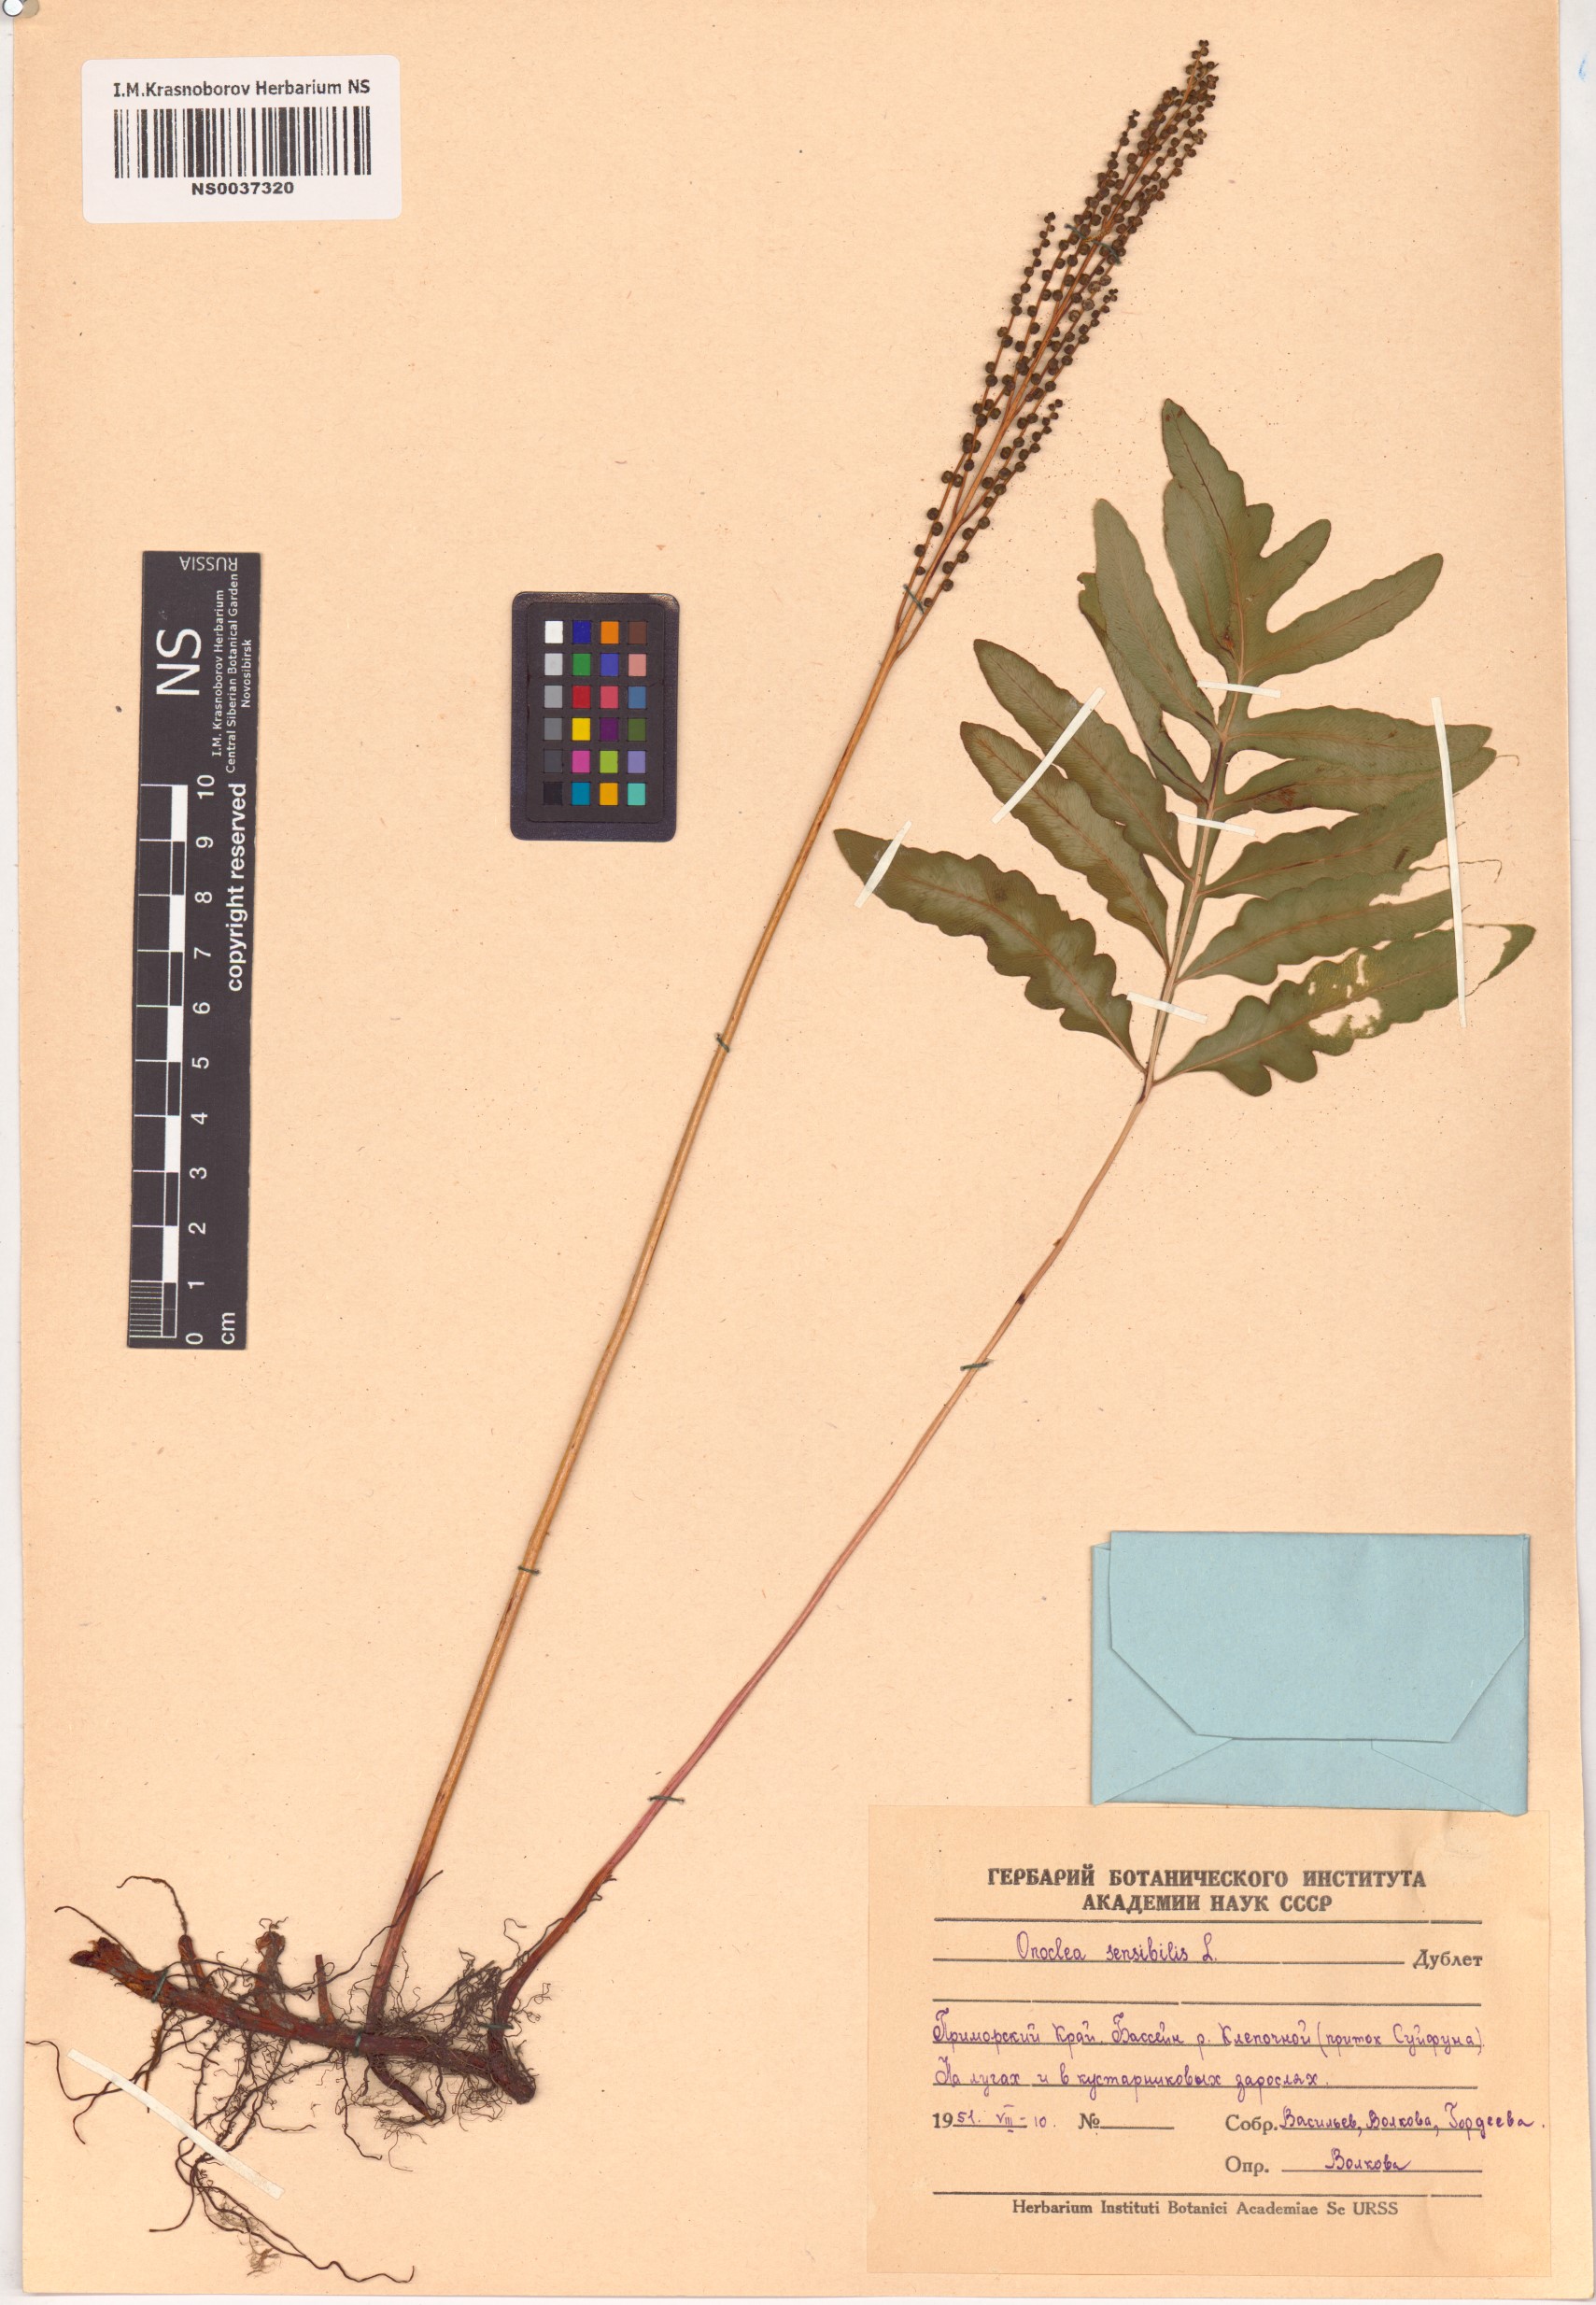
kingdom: Plantae
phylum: Tracheophyta
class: Polypodiopsida
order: Polypodiales
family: Onocleaceae
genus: Onoclea
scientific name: Onoclea sensibilis
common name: Sensitive fern
